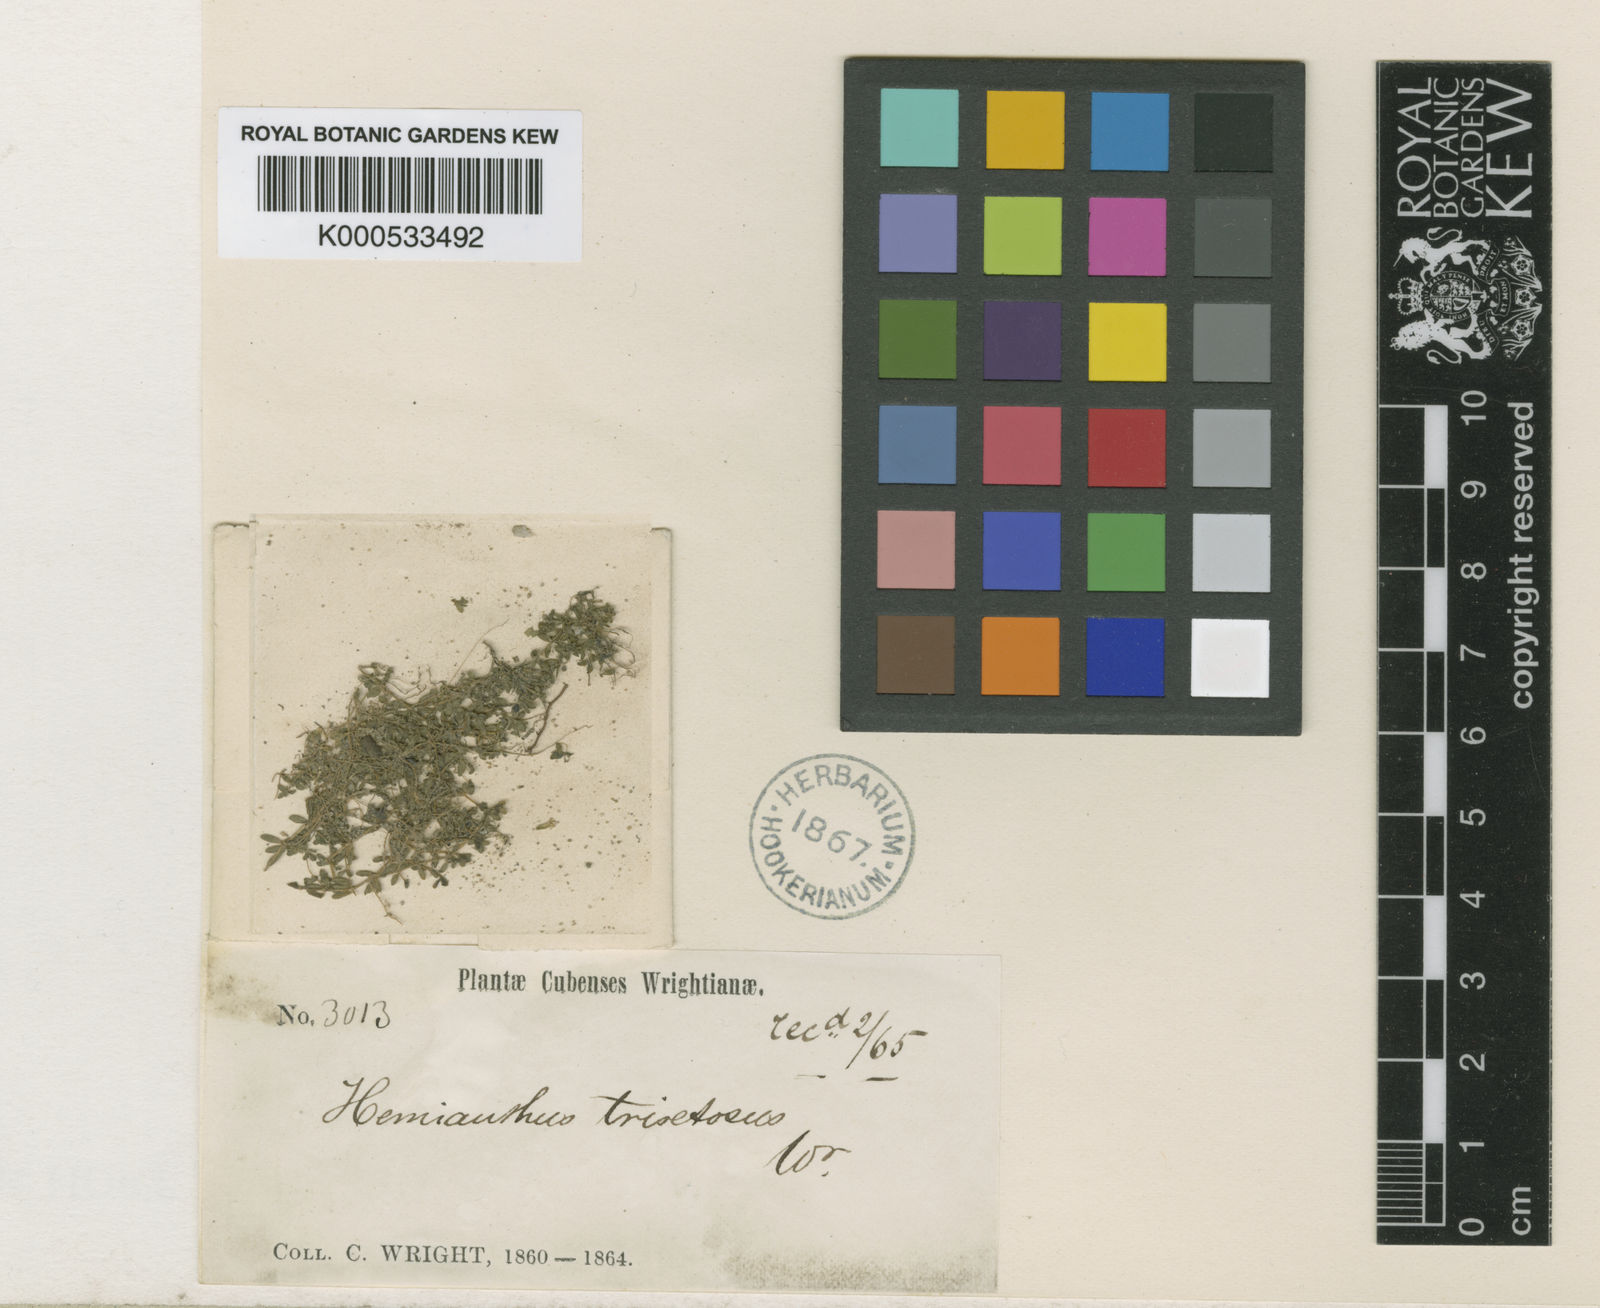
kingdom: Plantae
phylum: Tracheophyta
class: Magnoliopsida
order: Lamiales
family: Linderniaceae
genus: Micranthemum
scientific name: Micranthemum reflexum
